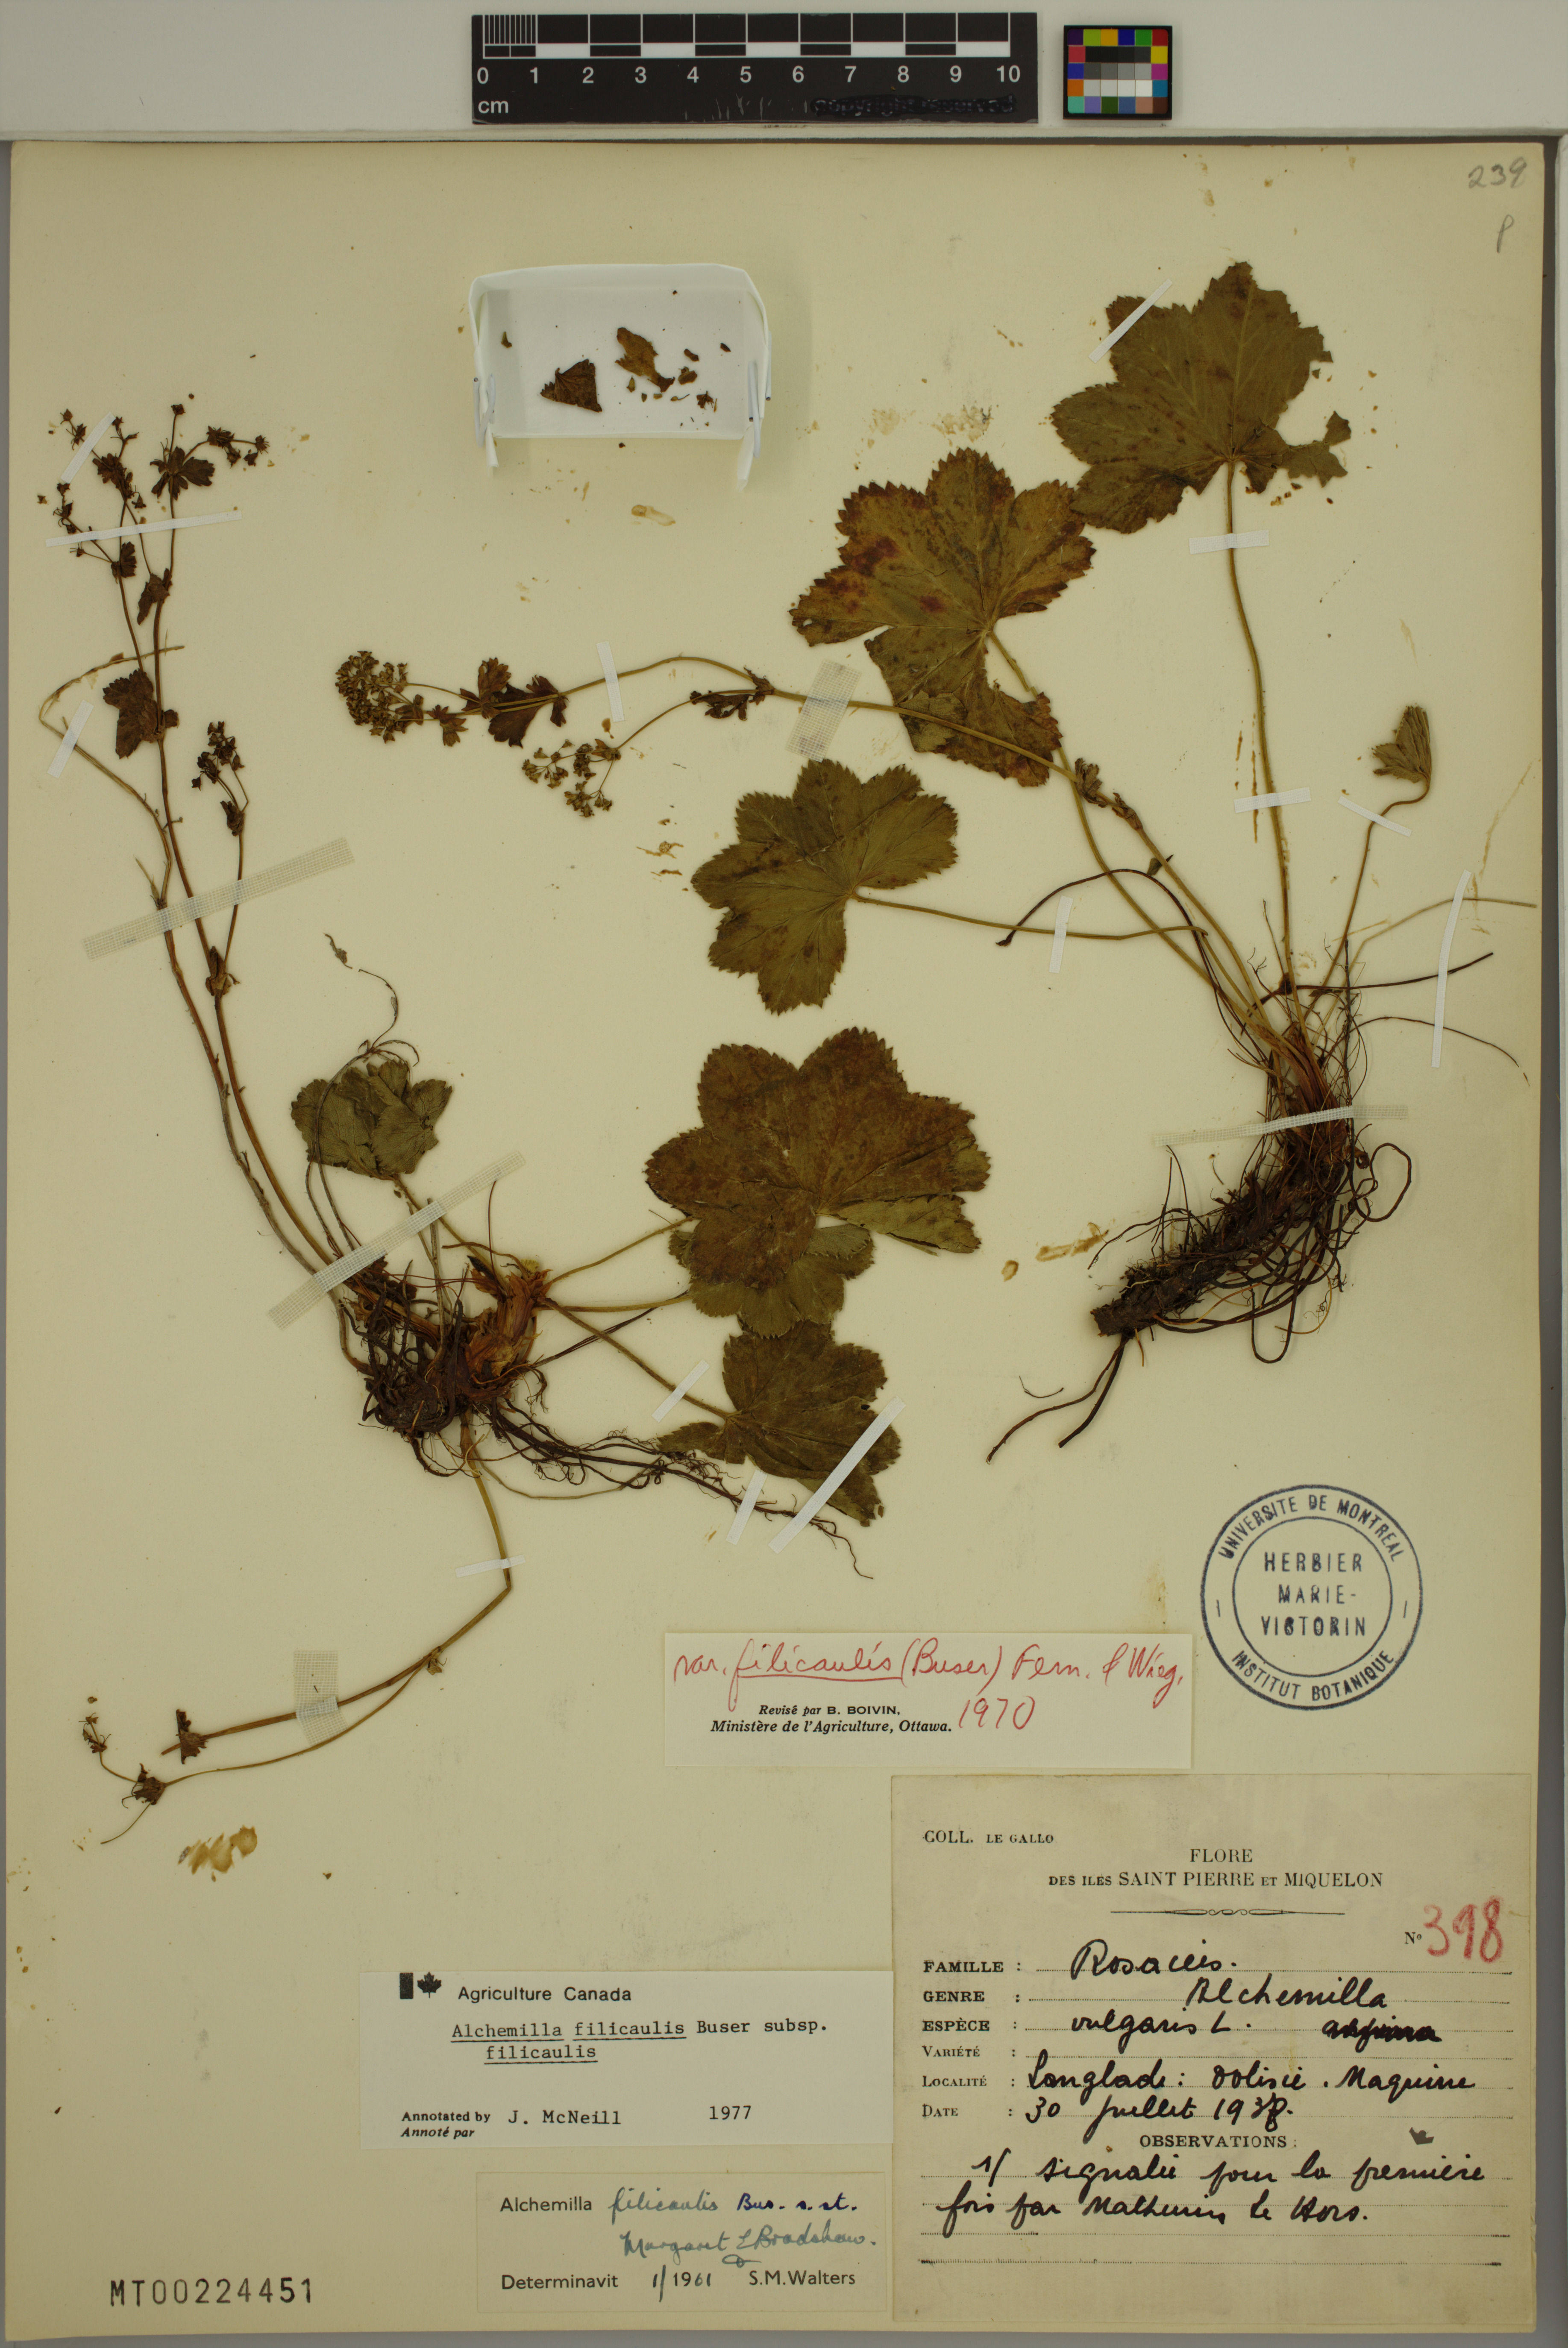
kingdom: Plantae
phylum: Tracheophyta
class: Magnoliopsida
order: Rosales
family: Rosaceae
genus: Alchemilla
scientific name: Alchemilla vulgaris
